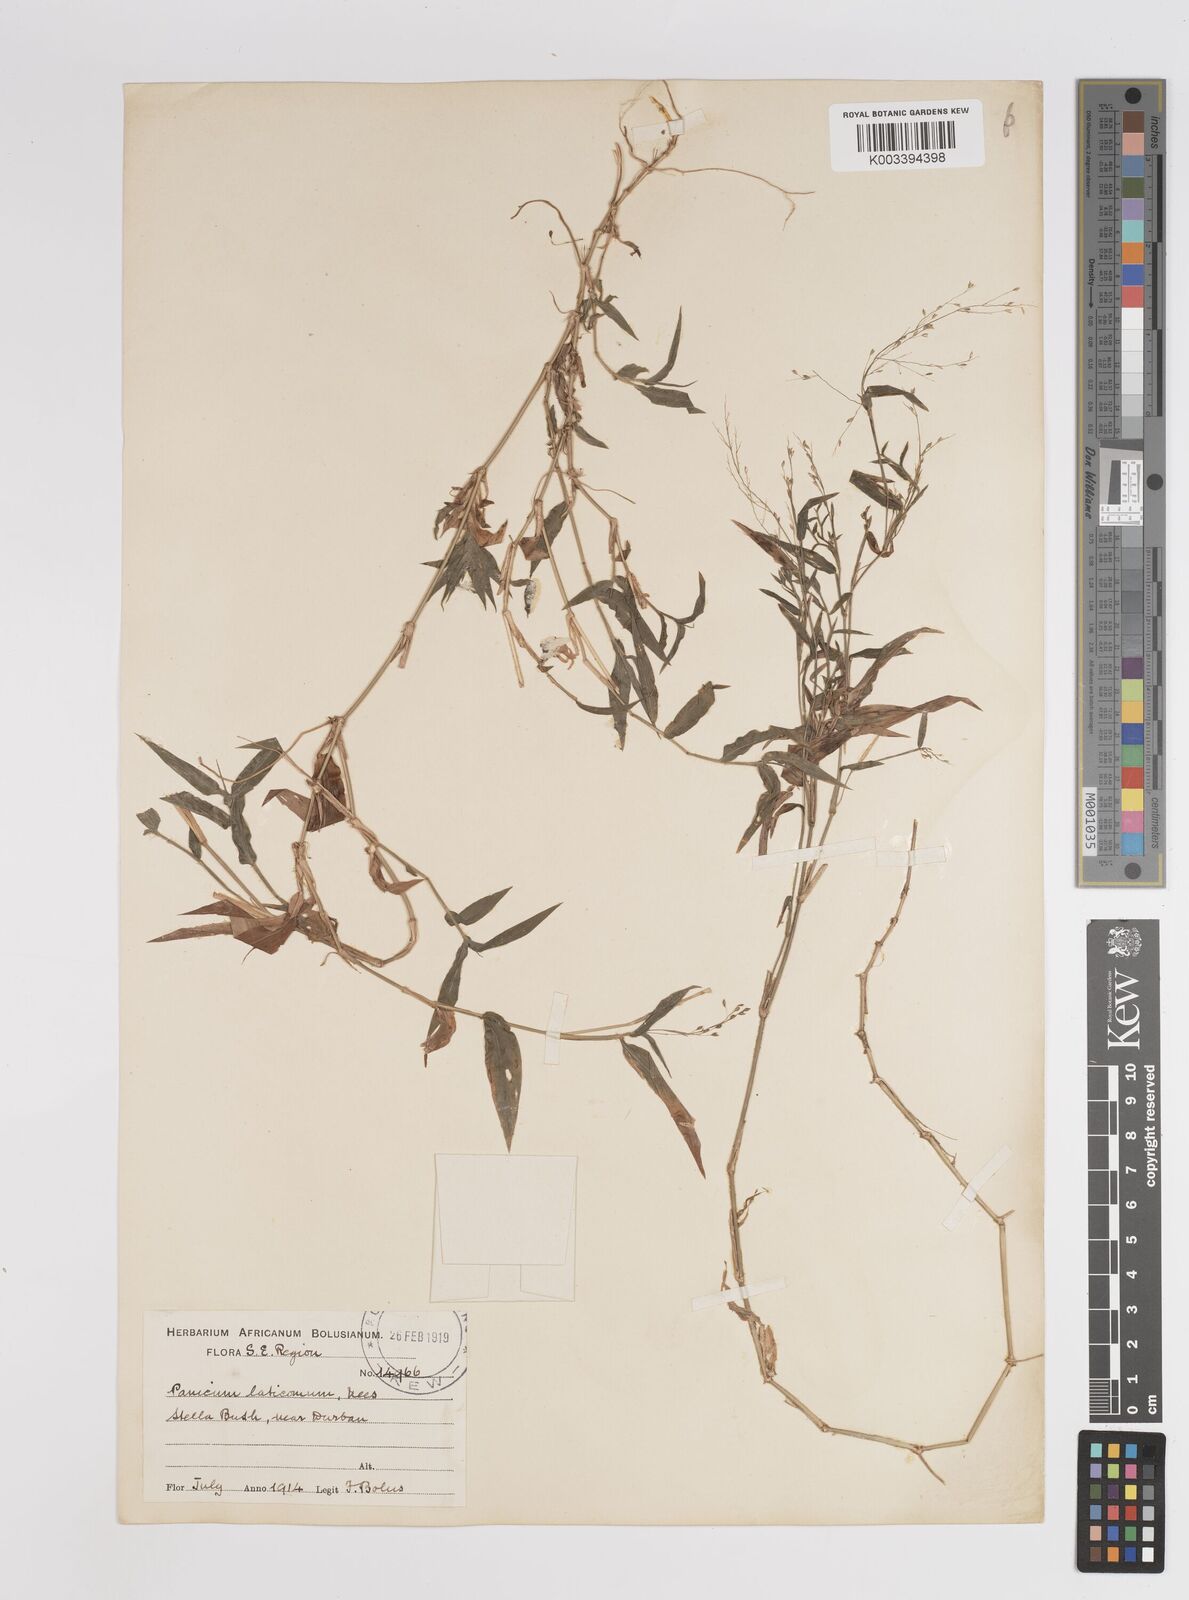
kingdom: Plantae
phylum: Tracheophyta
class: Liliopsida
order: Poales
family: Poaceae
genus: Panicum
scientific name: Panicum laticomum
